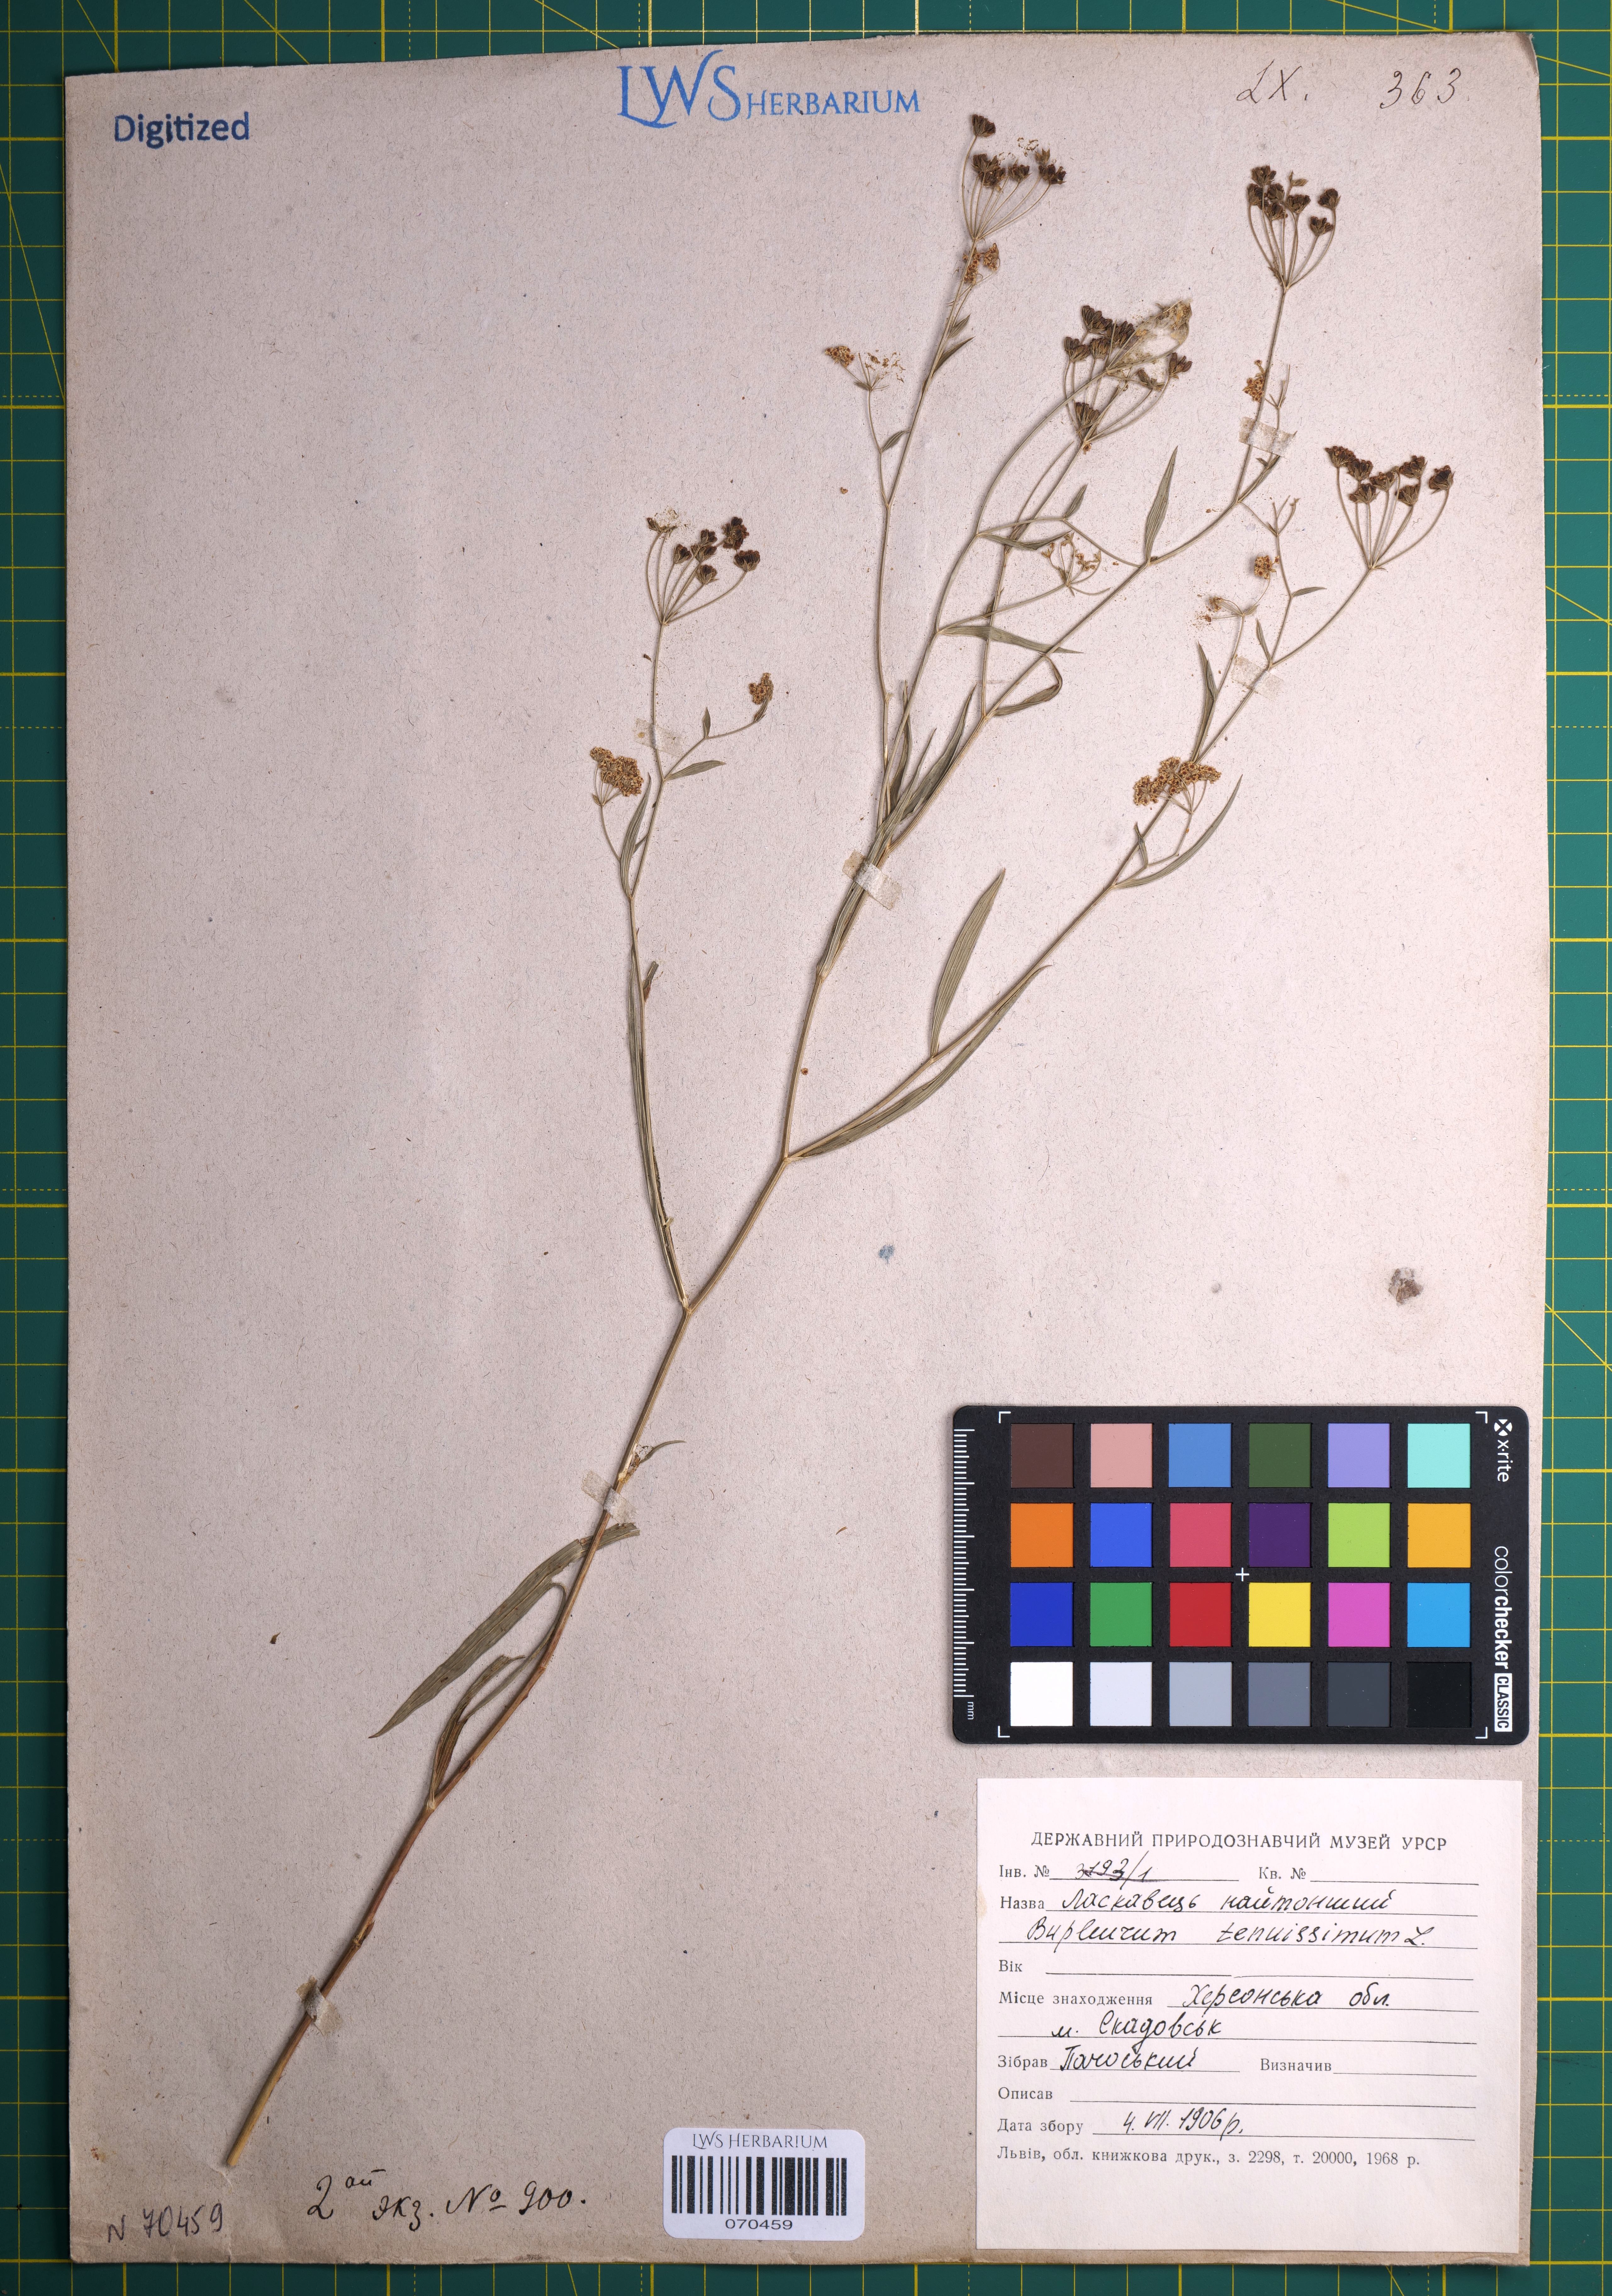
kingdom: Plantae
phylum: Tracheophyta
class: Magnoliopsida
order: Apiales
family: Apiaceae
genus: Bupleurum
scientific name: Bupleurum tenuissimum
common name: Slender hare's-ear
